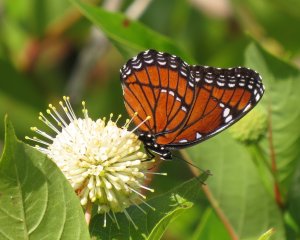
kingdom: Animalia
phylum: Arthropoda
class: Insecta
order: Lepidoptera
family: Nymphalidae
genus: Limenitis
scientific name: Limenitis archippus
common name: Viceroy
